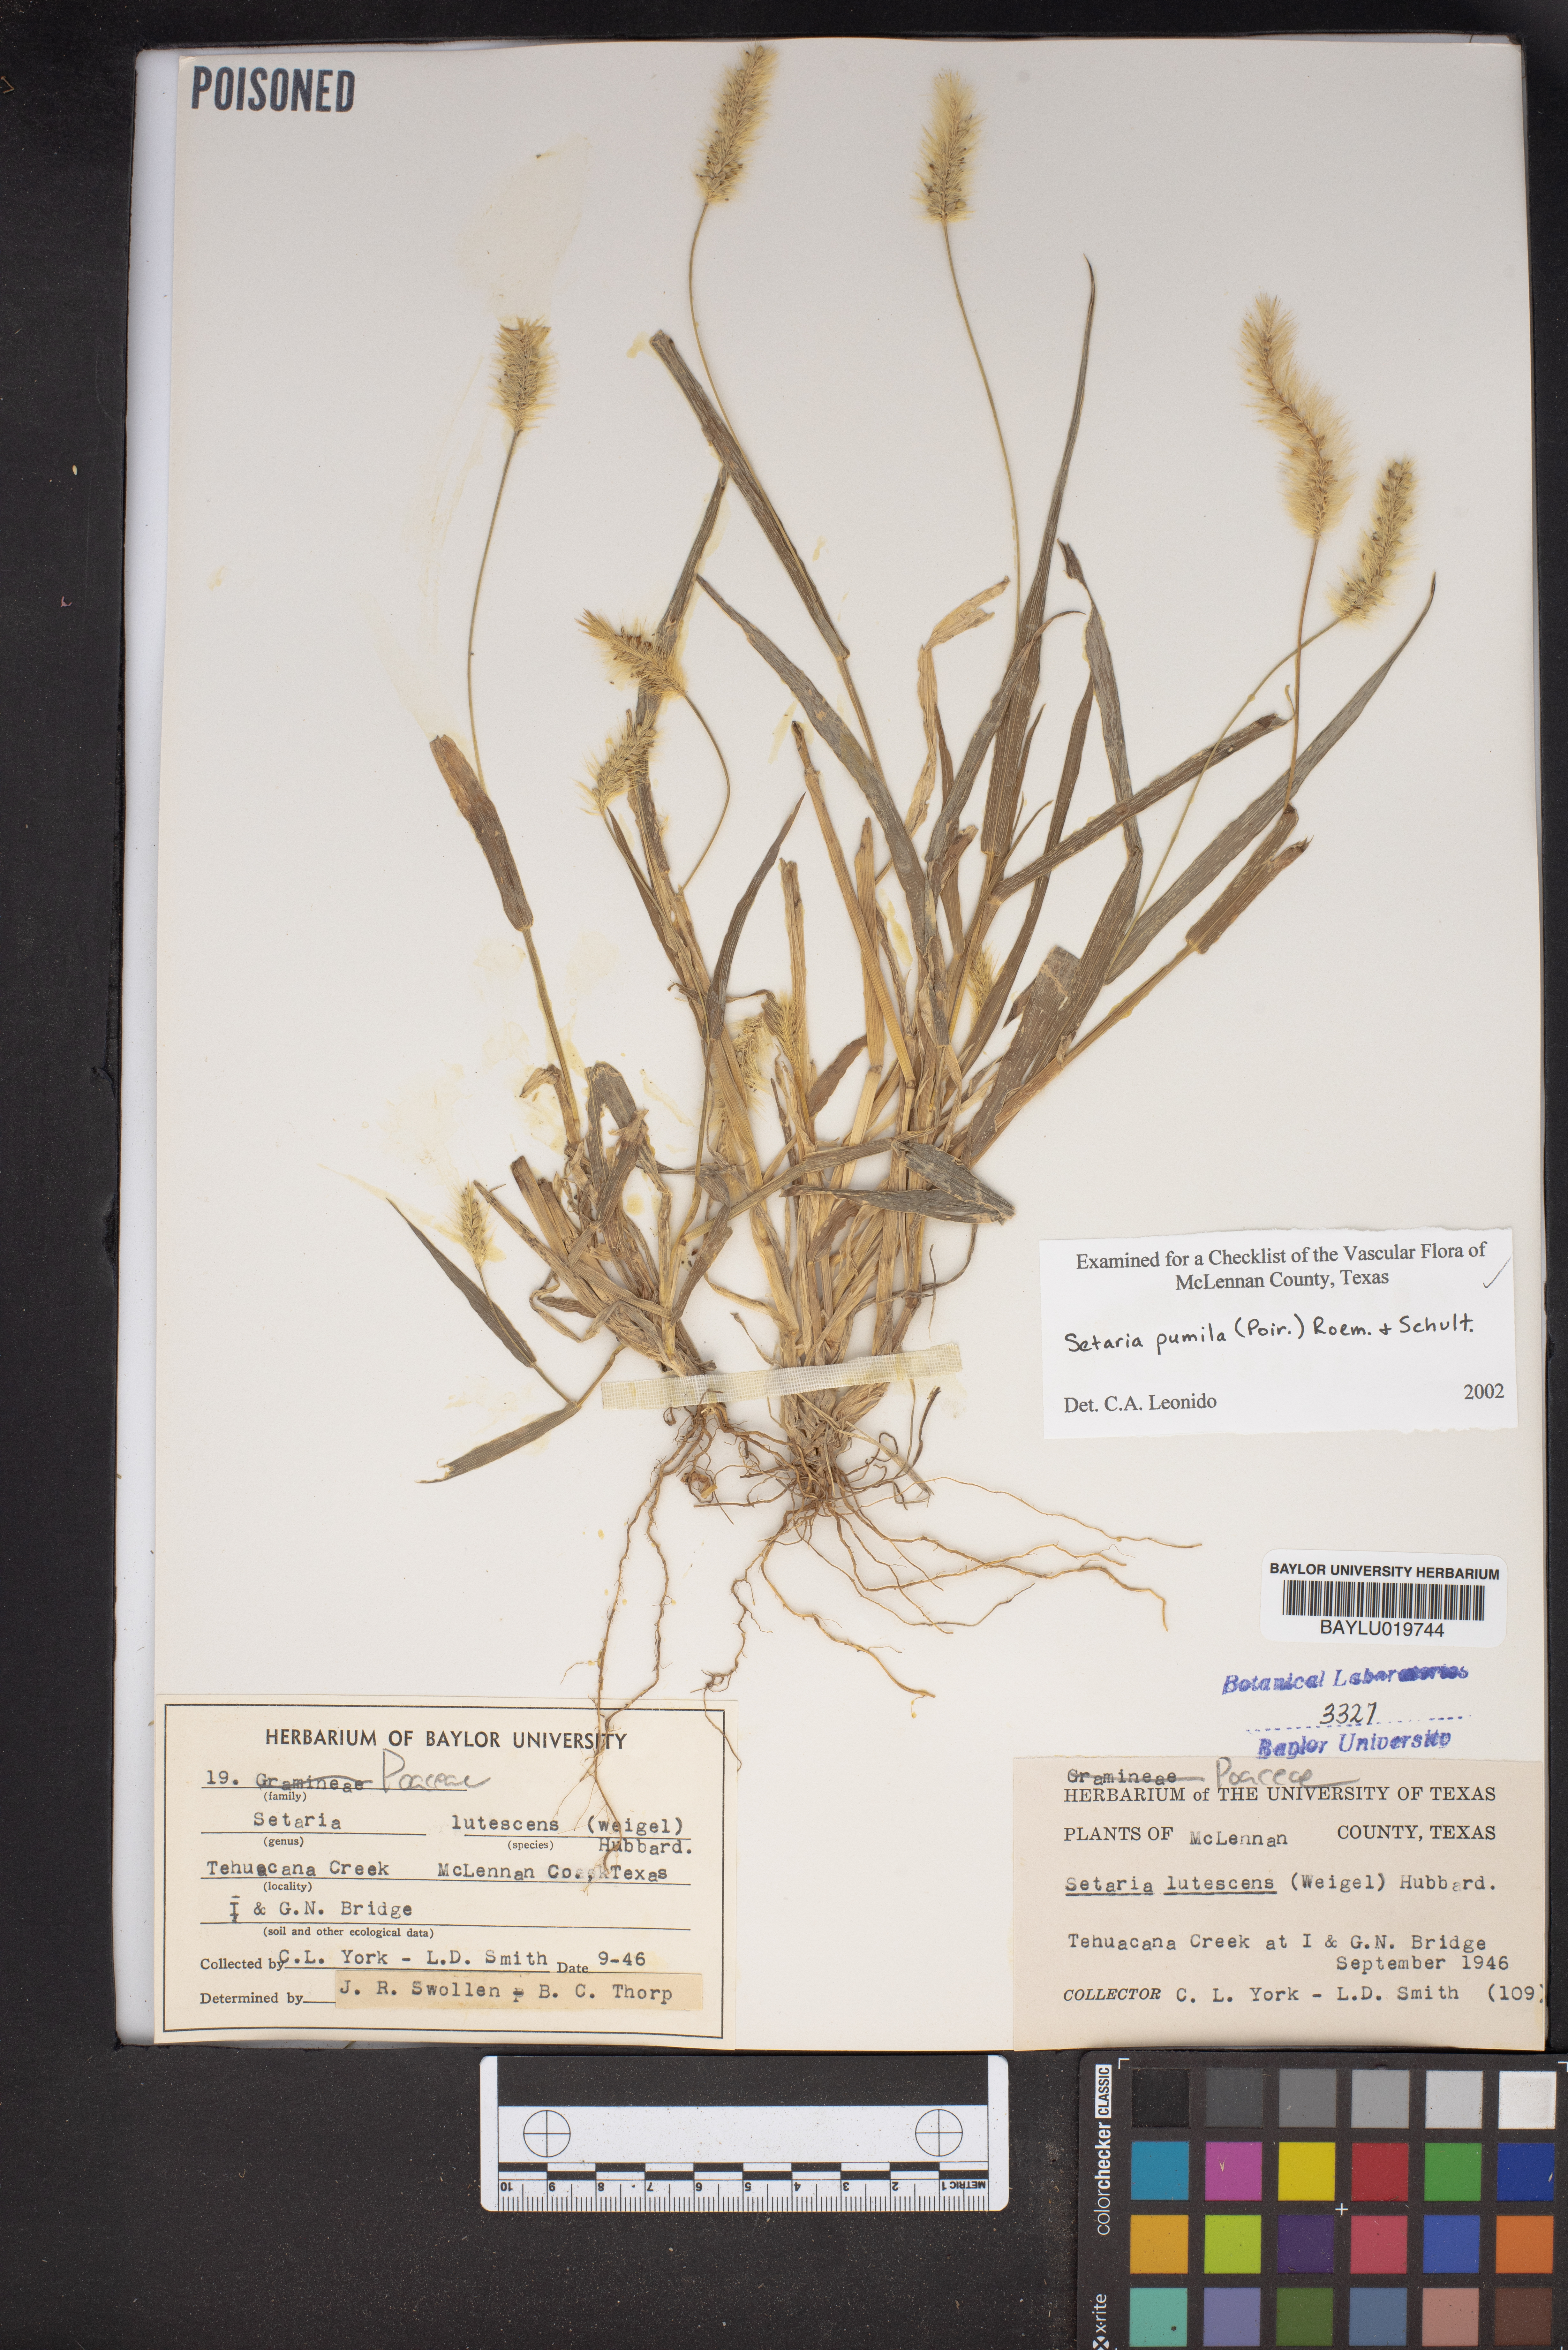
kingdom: Plantae
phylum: Tracheophyta
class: Liliopsida
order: Poales
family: Poaceae
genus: Cenchrus
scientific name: Cenchrus americanus
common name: Pearl millet
